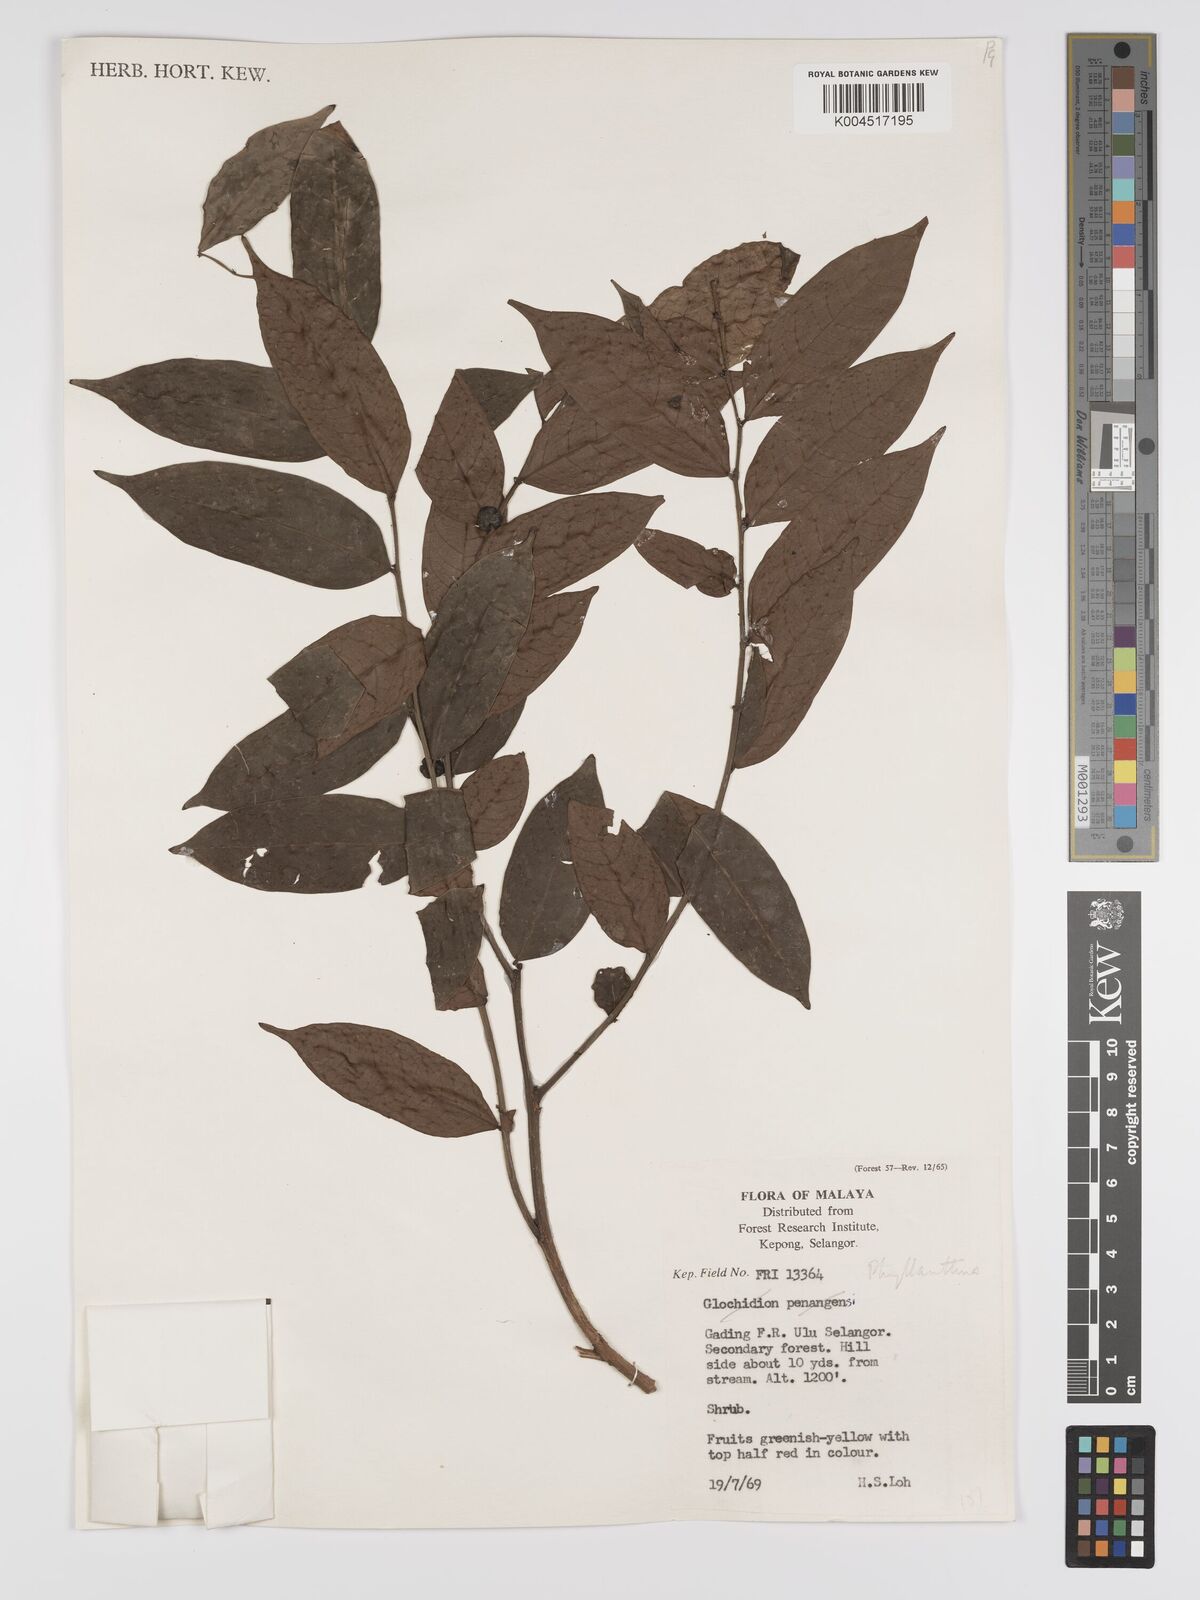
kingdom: Plantae
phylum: Tracheophyta
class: Magnoliopsida
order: Malpighiales
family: Phyllanthaceae
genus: Phyllanthus
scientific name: Phyllanthus
